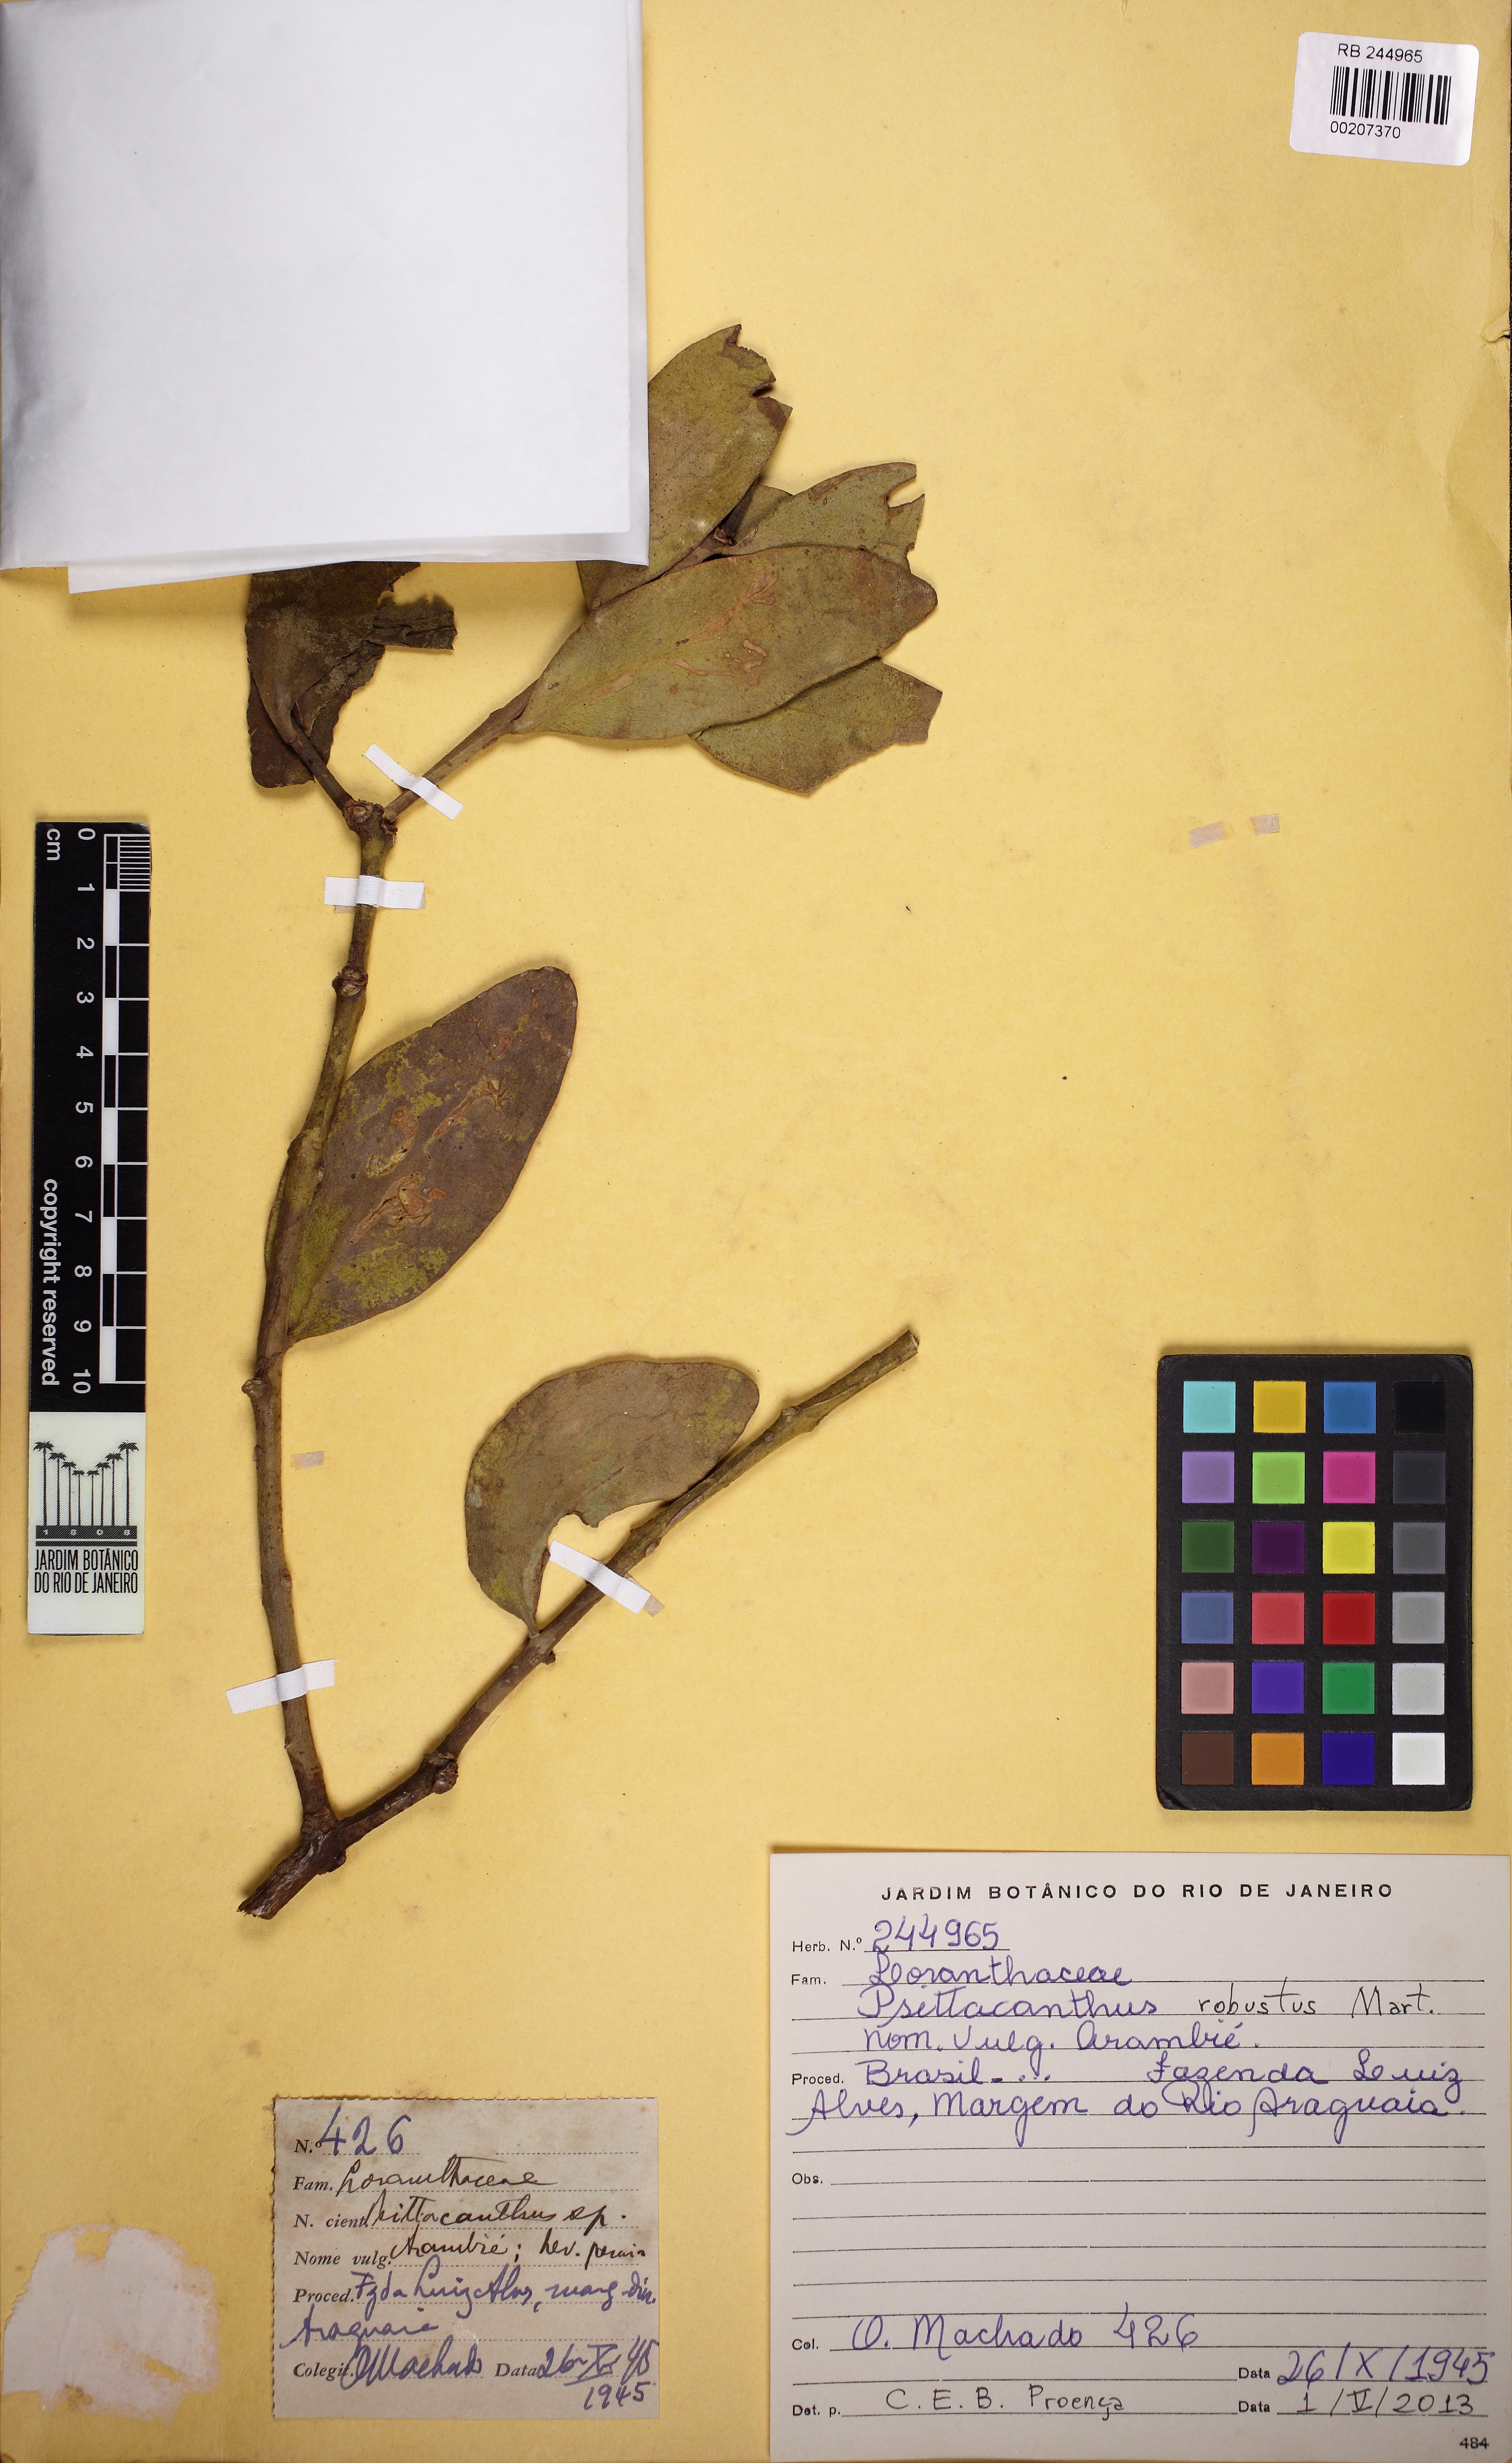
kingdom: Plantae
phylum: Tracheophyta
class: Magnoliopsida
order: Santalales
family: Loranthaceae
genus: Psittacanthus
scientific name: Psittacanthus robustus
